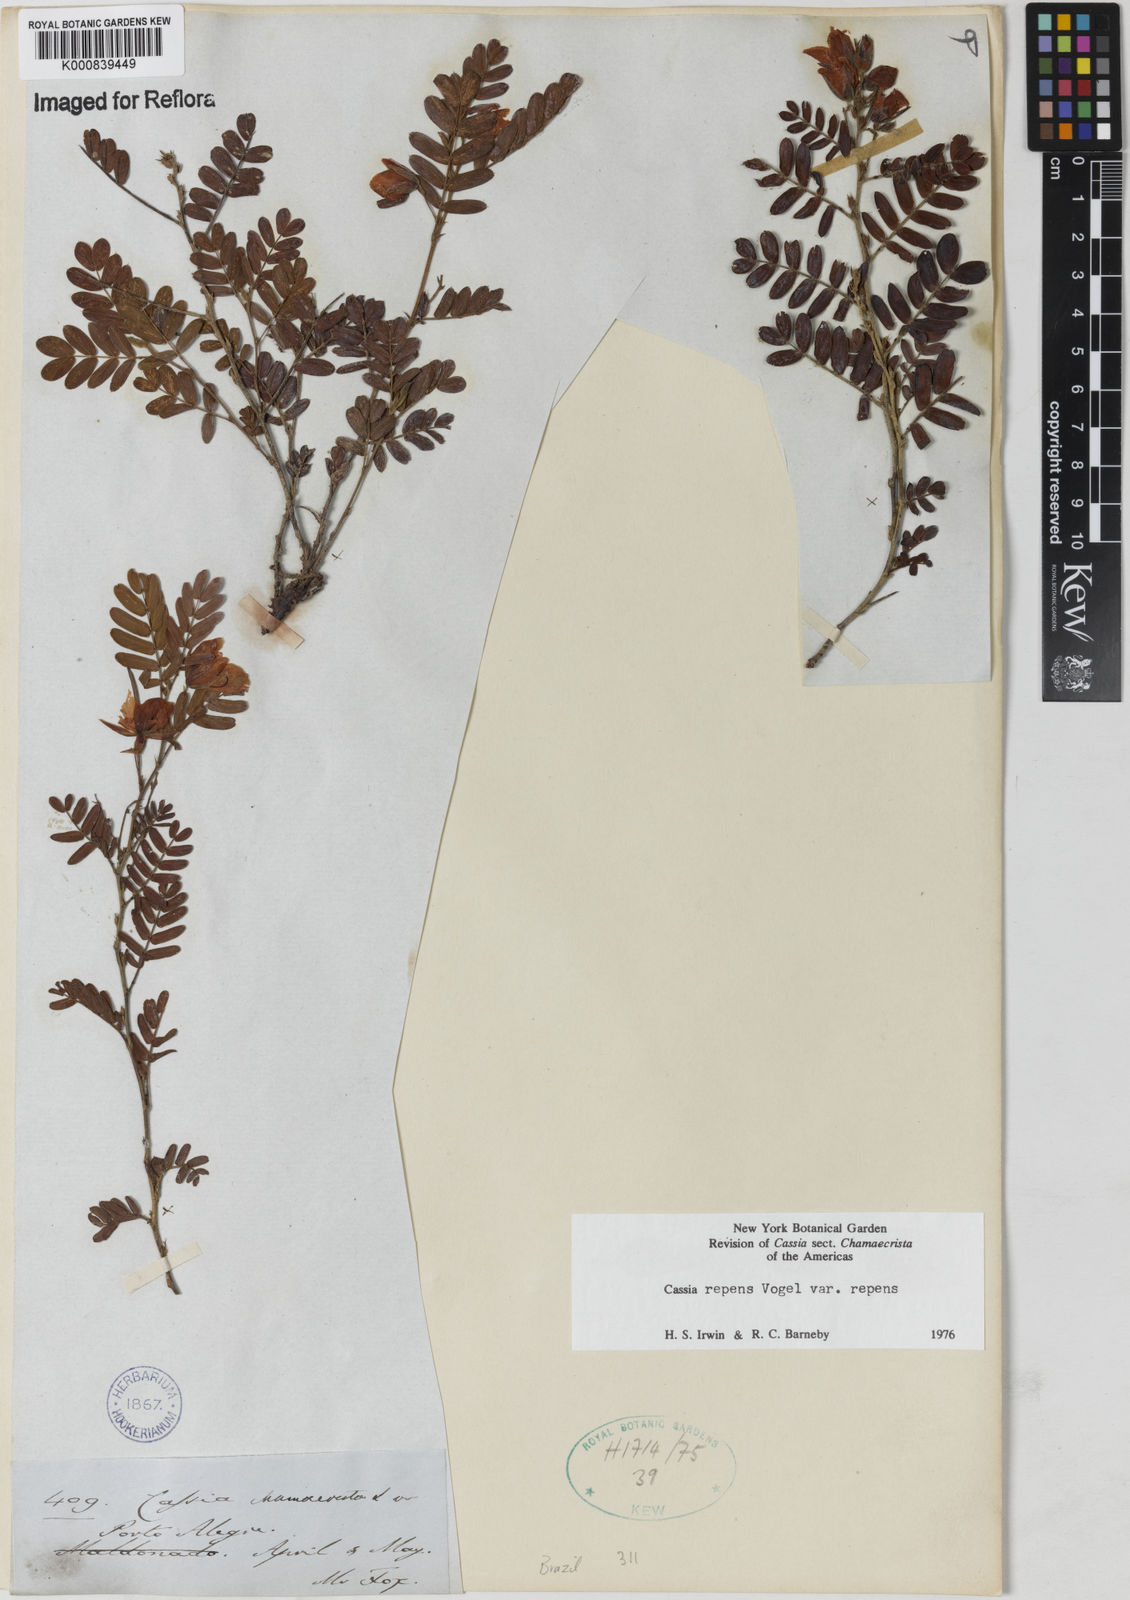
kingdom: Plantae
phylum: Tracheophyta
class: Magnoliopsida
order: Fabales
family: Fabaceae
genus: Chamaecrista
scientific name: Chamaecrista repens
